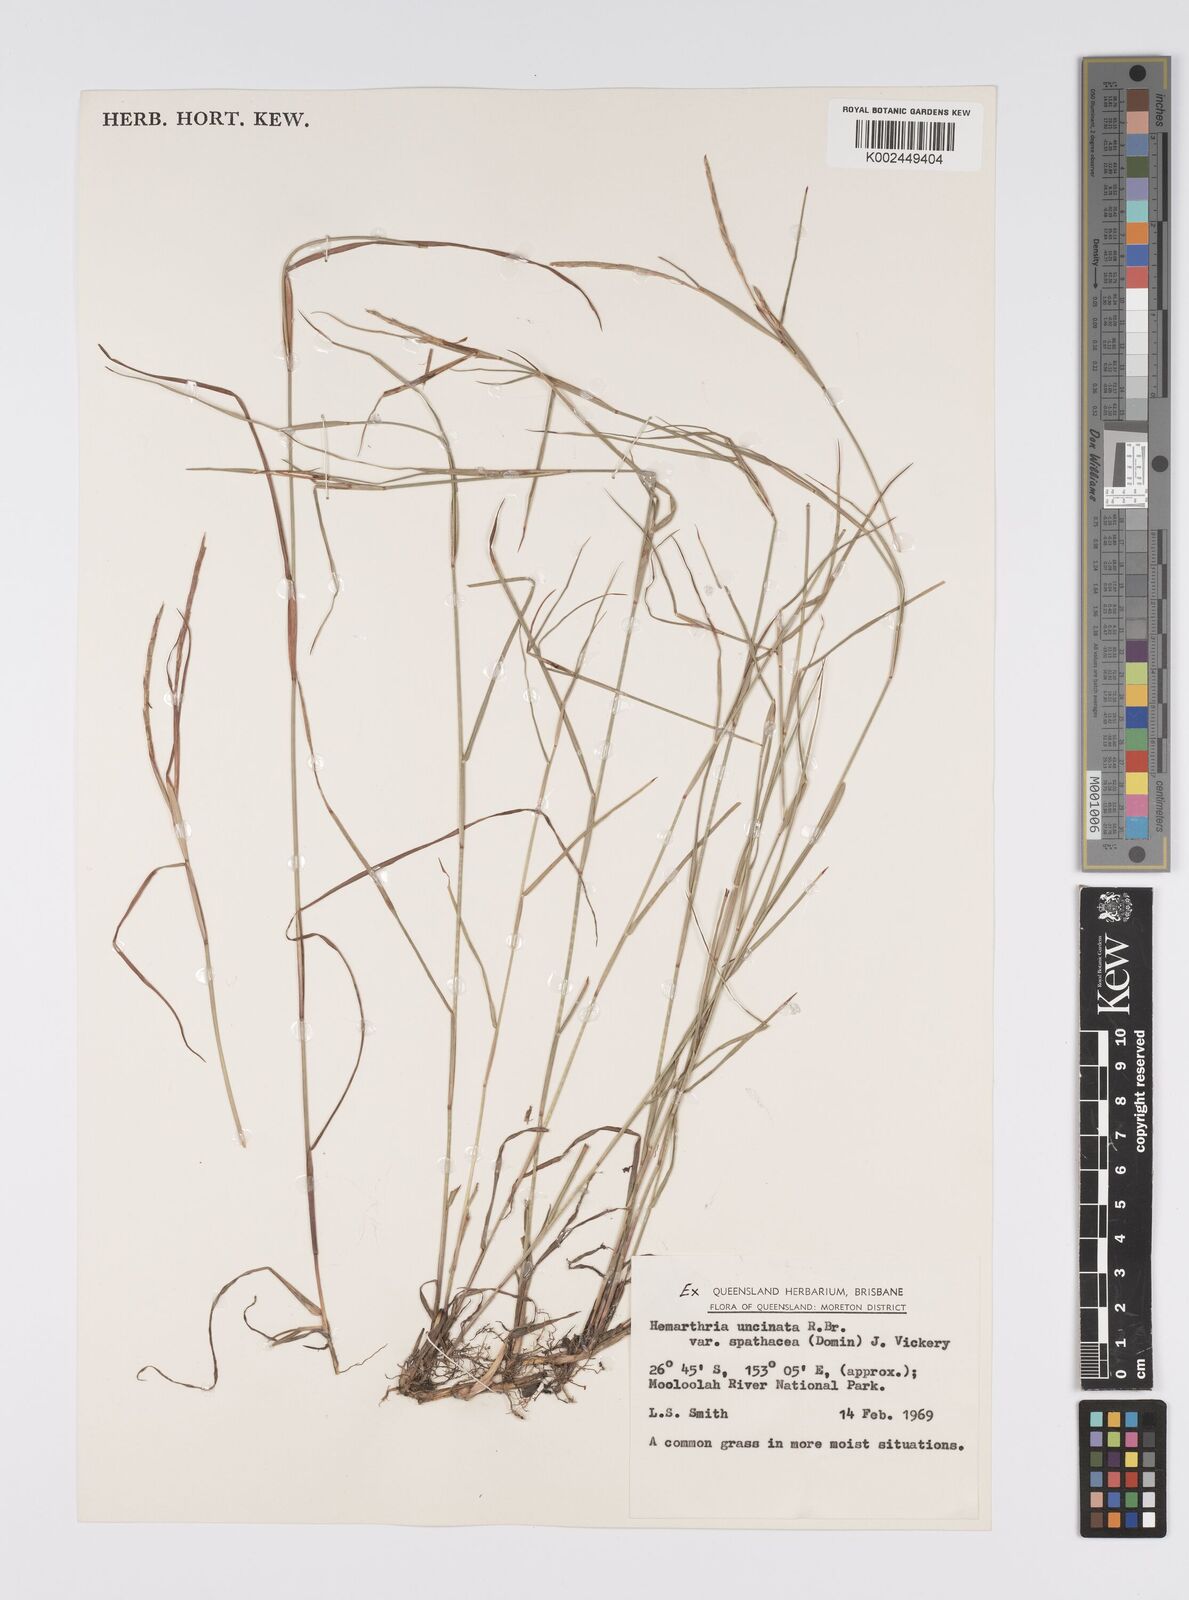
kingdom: Plantae
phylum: Tracheophyta
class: Liliopsida
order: Poales
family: Poaceae
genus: Hemarthria
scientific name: Hemarthria uncinata
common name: Matgrass
